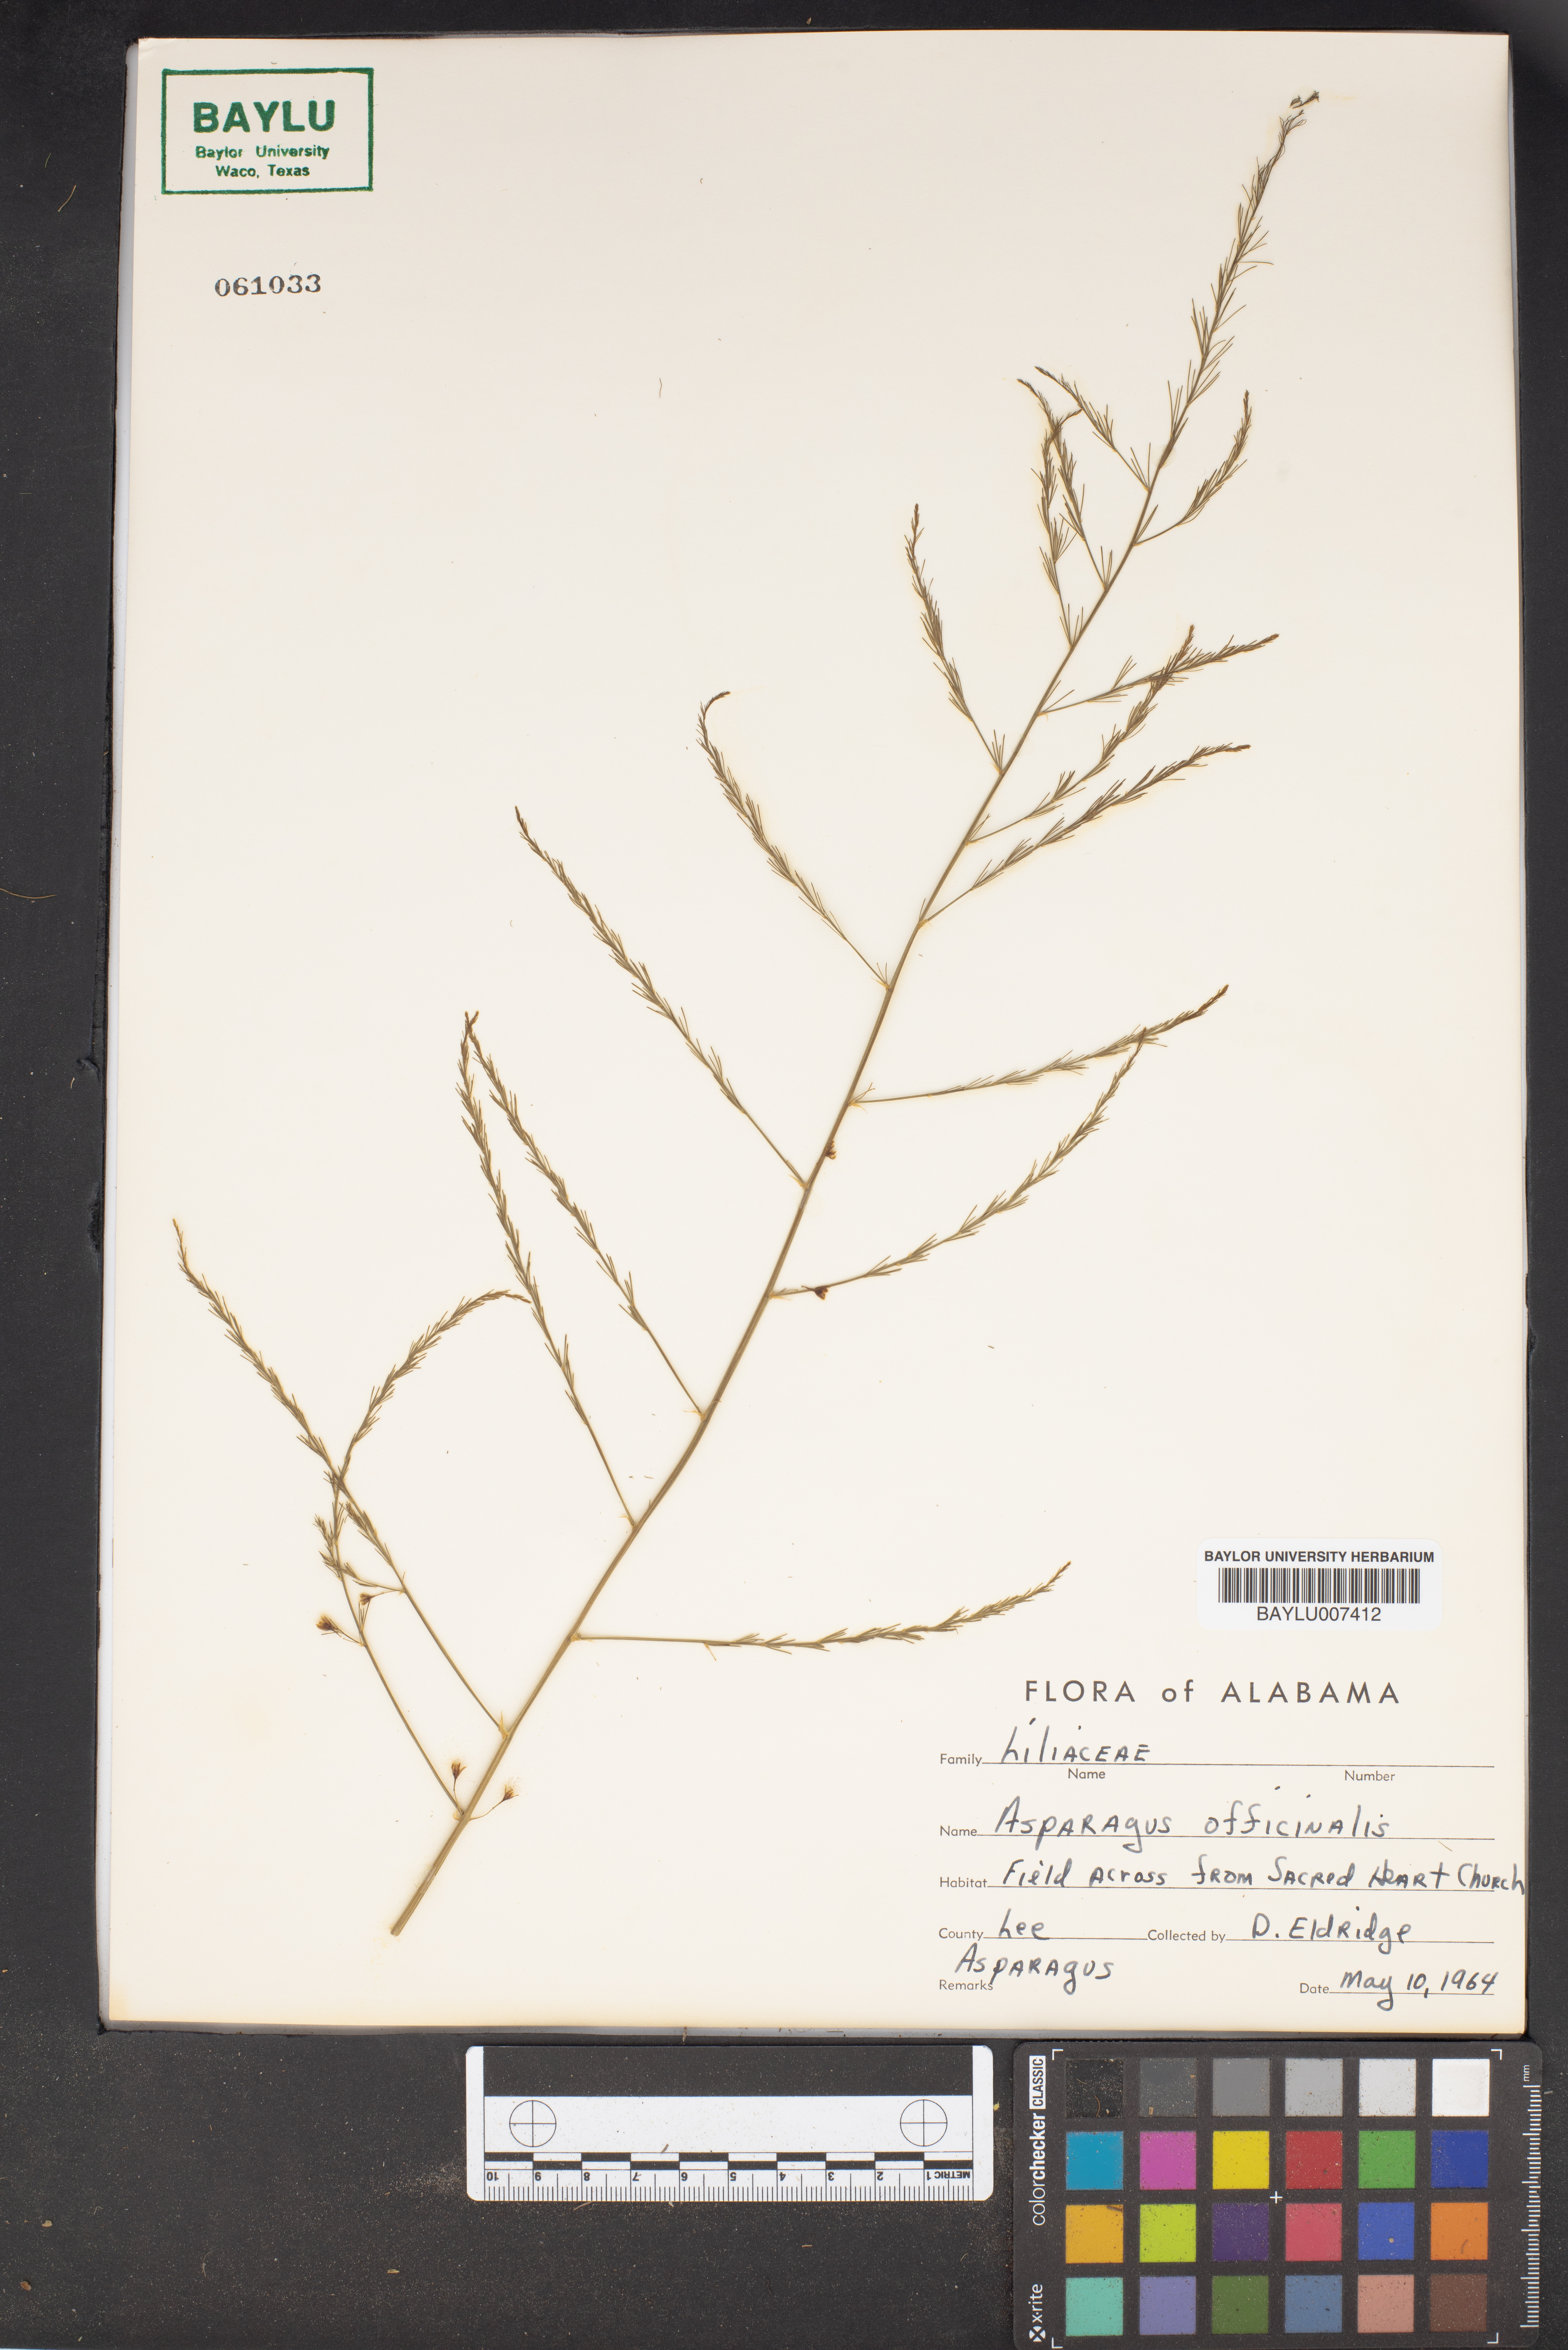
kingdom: Plantae
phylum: Tracheophyta
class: Liliopsida
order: Asparagales
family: Asparagaceae
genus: Asparagus
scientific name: Asparagus officinalis
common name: Garden asparagus
